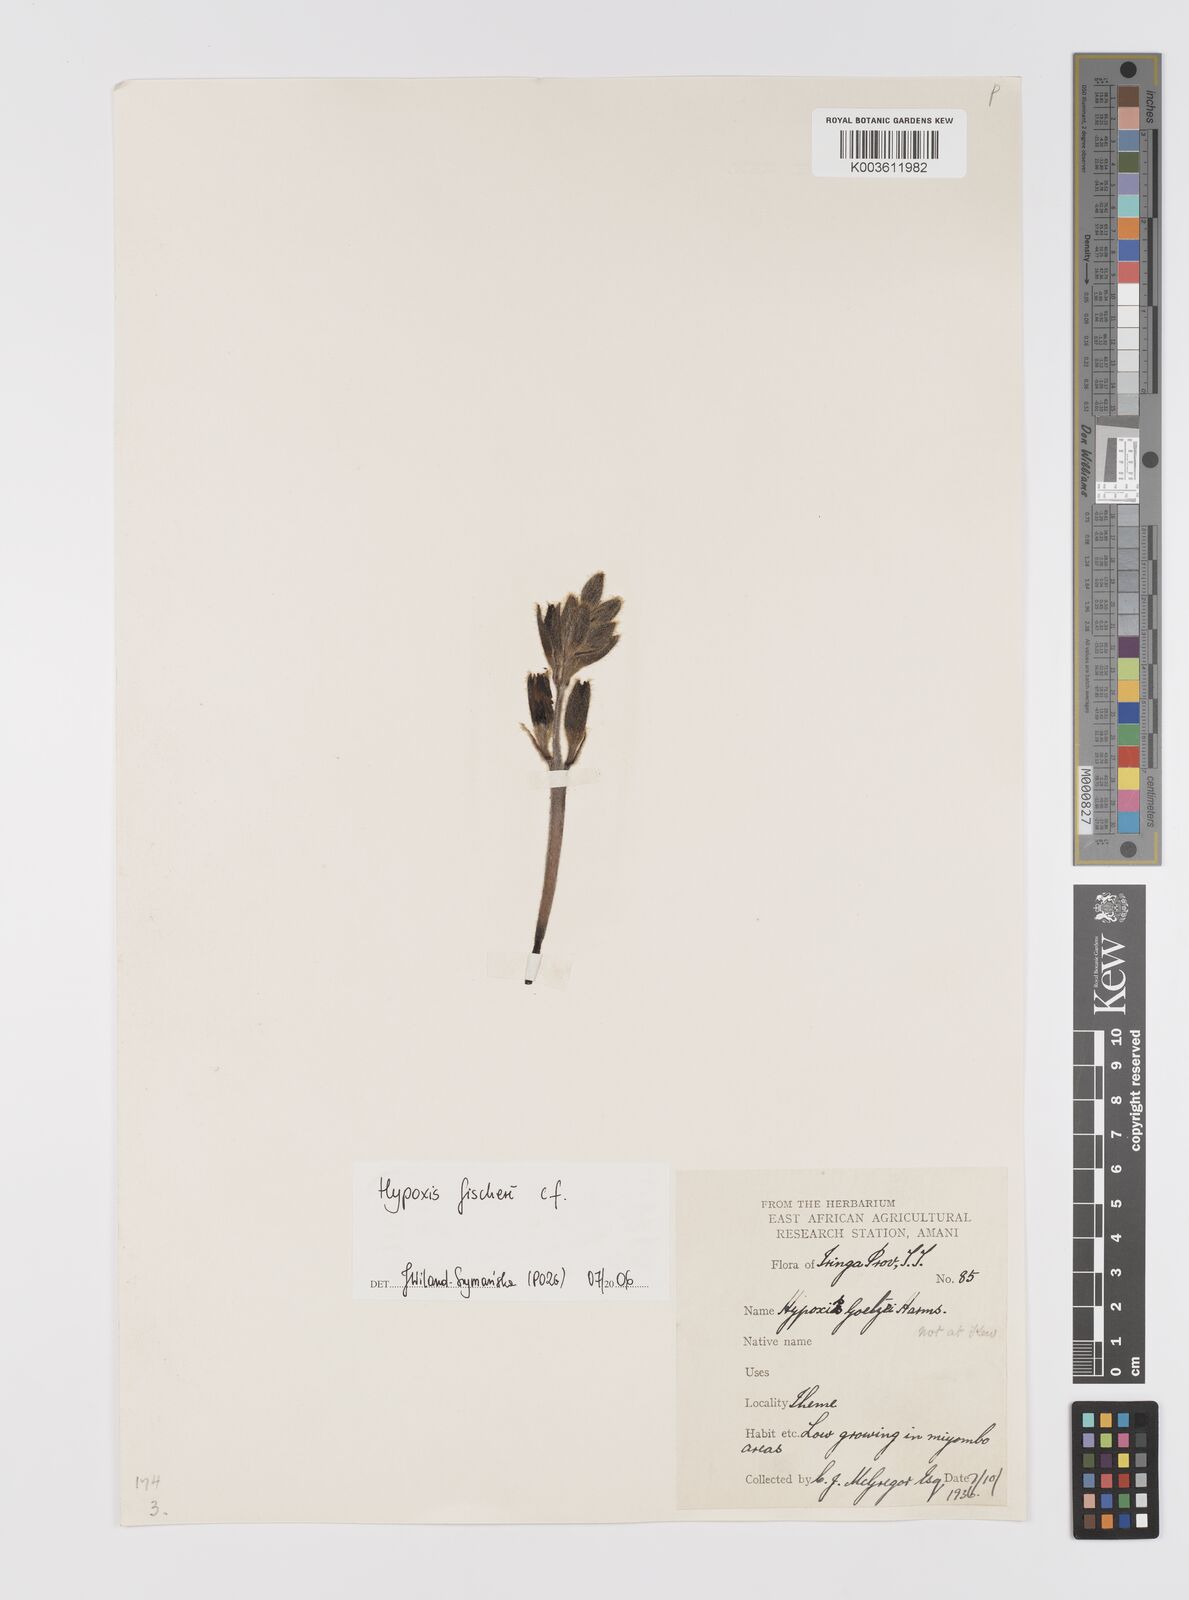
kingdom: Plantae
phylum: Tracheophyta
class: Liliopsida
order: Asparagales
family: Hypoxidaceae
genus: Hypoxis
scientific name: Hypoxis fischeri
